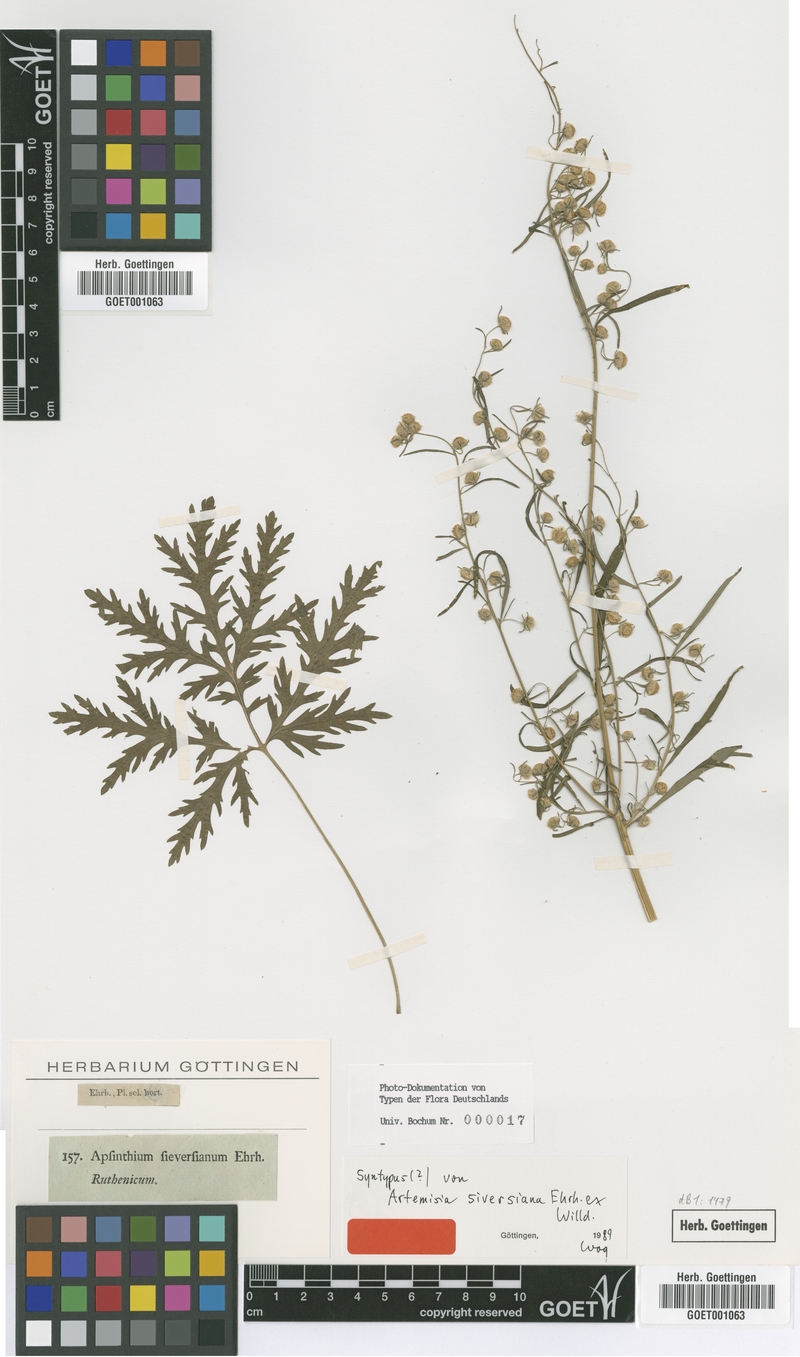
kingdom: Plantae
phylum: Tracheophyta
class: Magnoliopsida
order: Asterales
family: Asteraceae
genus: Artemisia
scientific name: Artemisia sieversiana
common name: Sieversian wormwood
